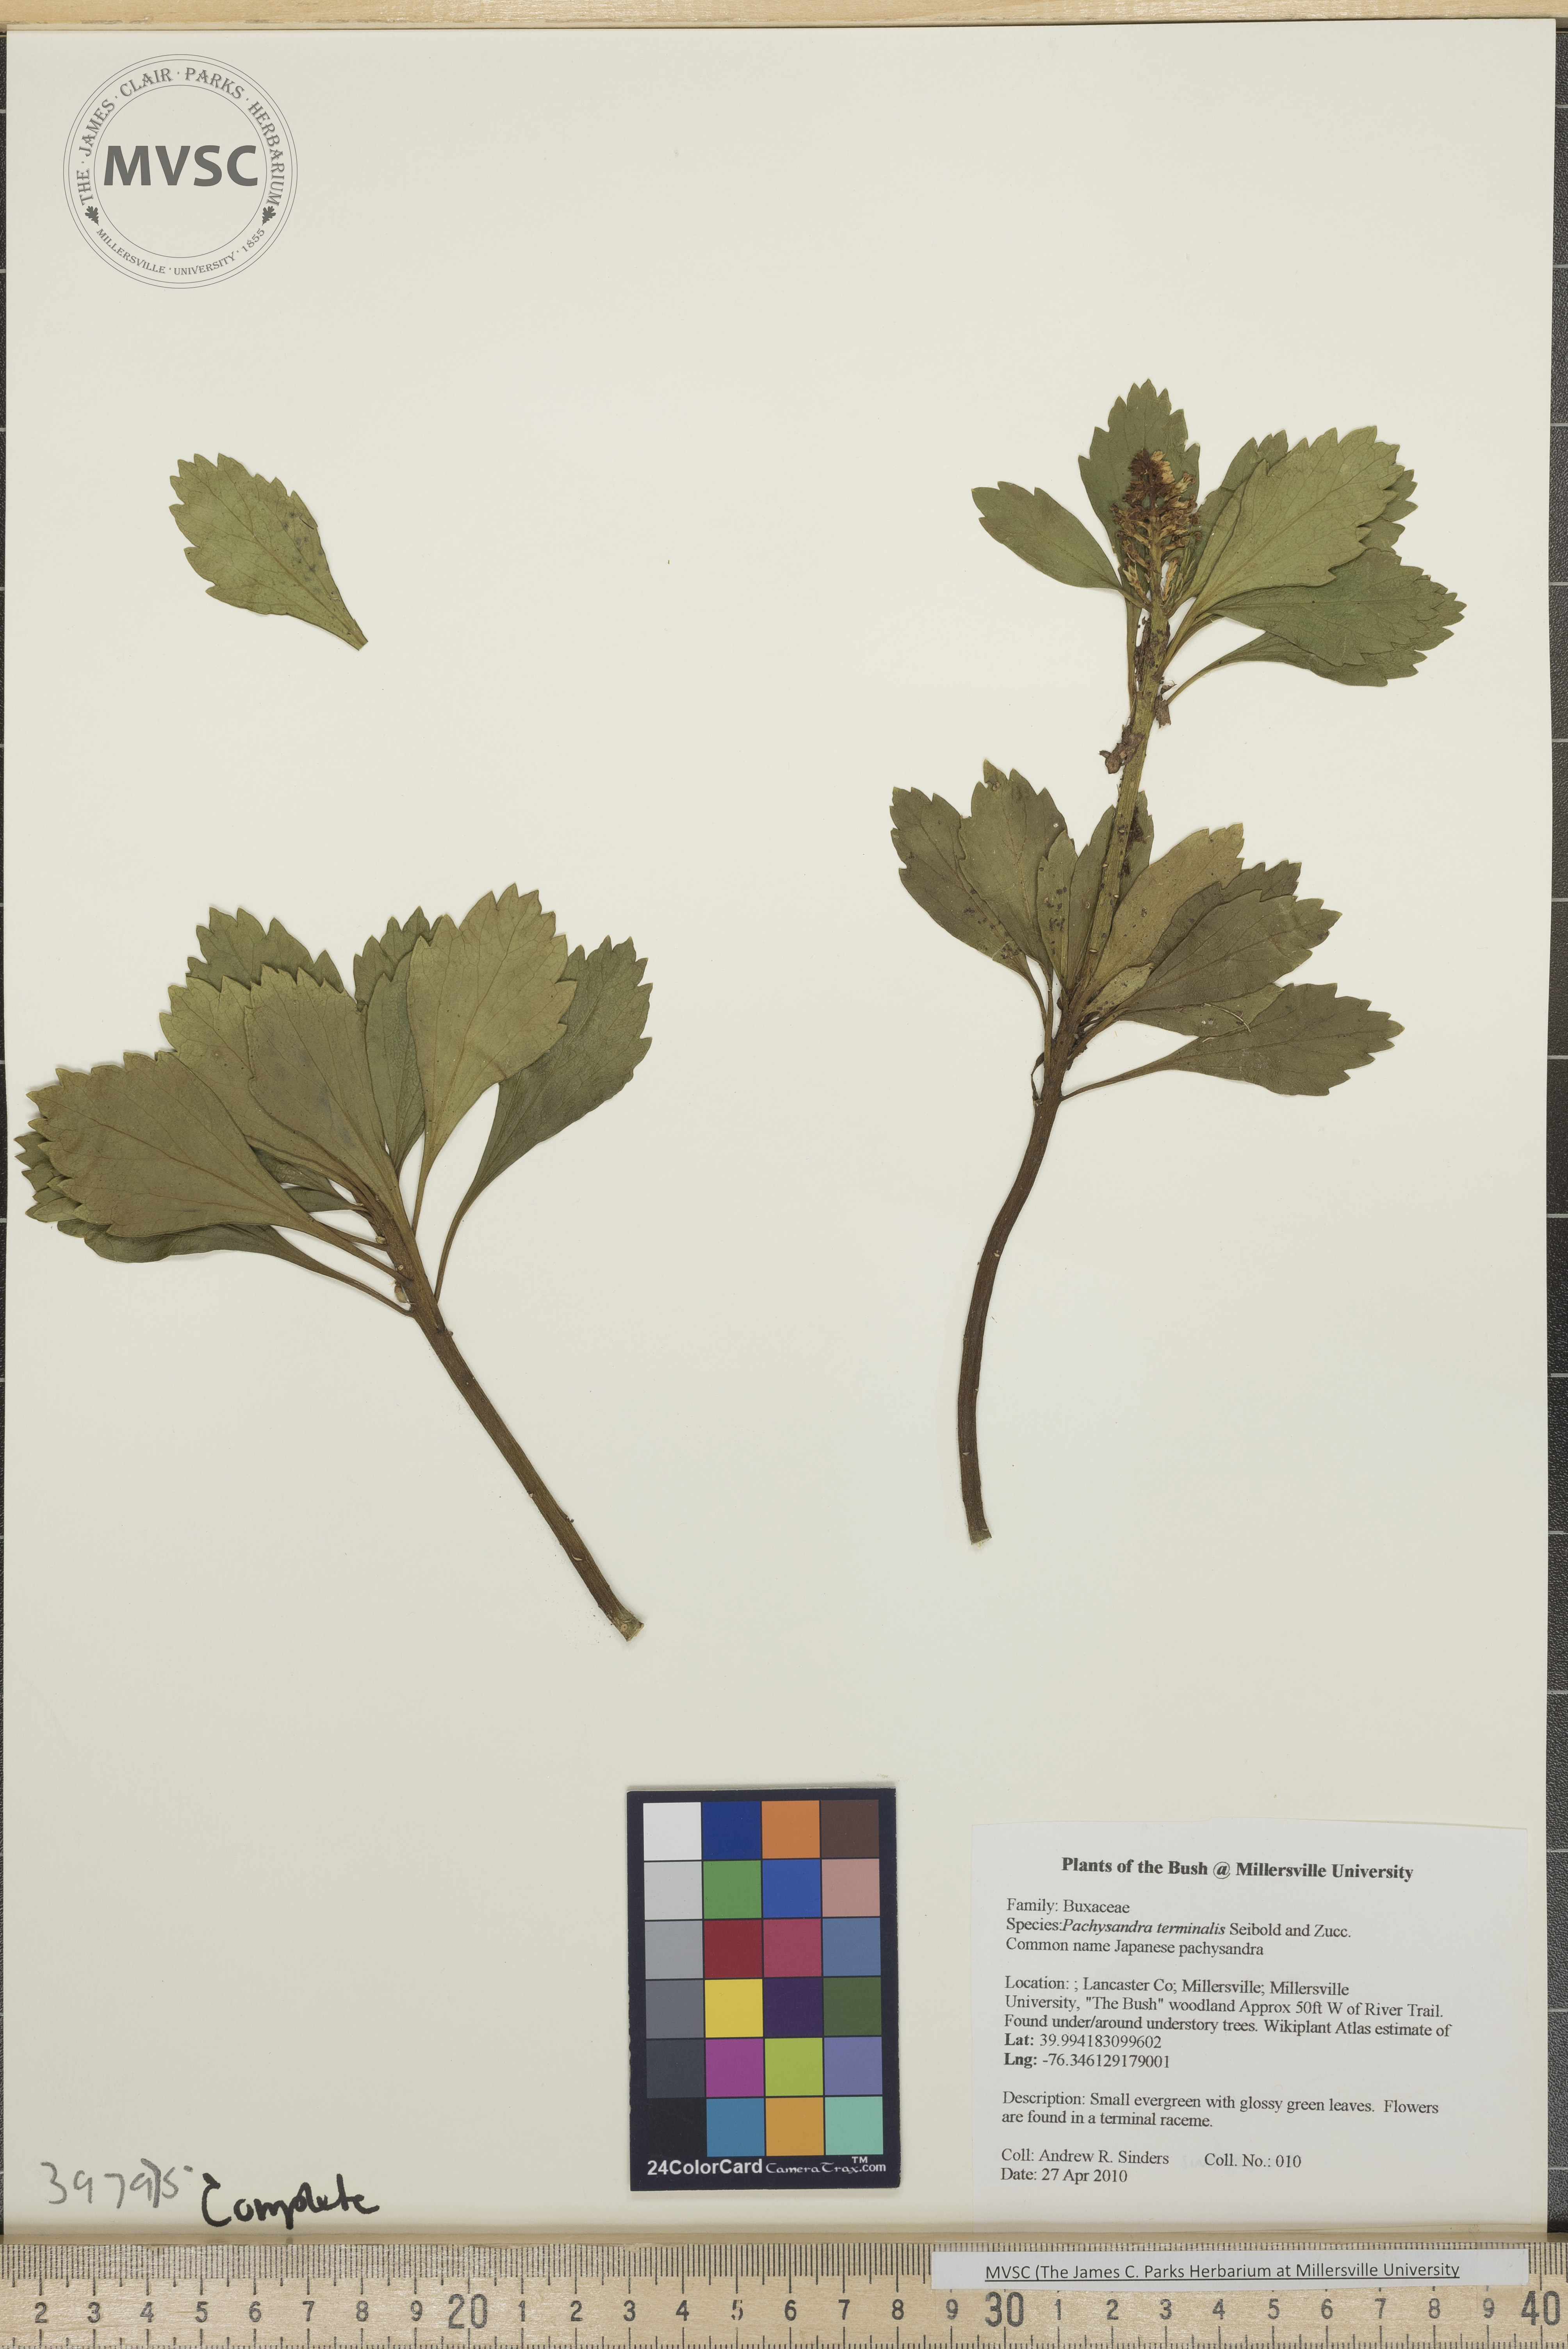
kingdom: Plantae
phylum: Tracheophyta
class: Magnoliopsida
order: Buxales
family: Buxaceae
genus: Pachysandra
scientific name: Pachysandra terminalis
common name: Japanese pachysandra
